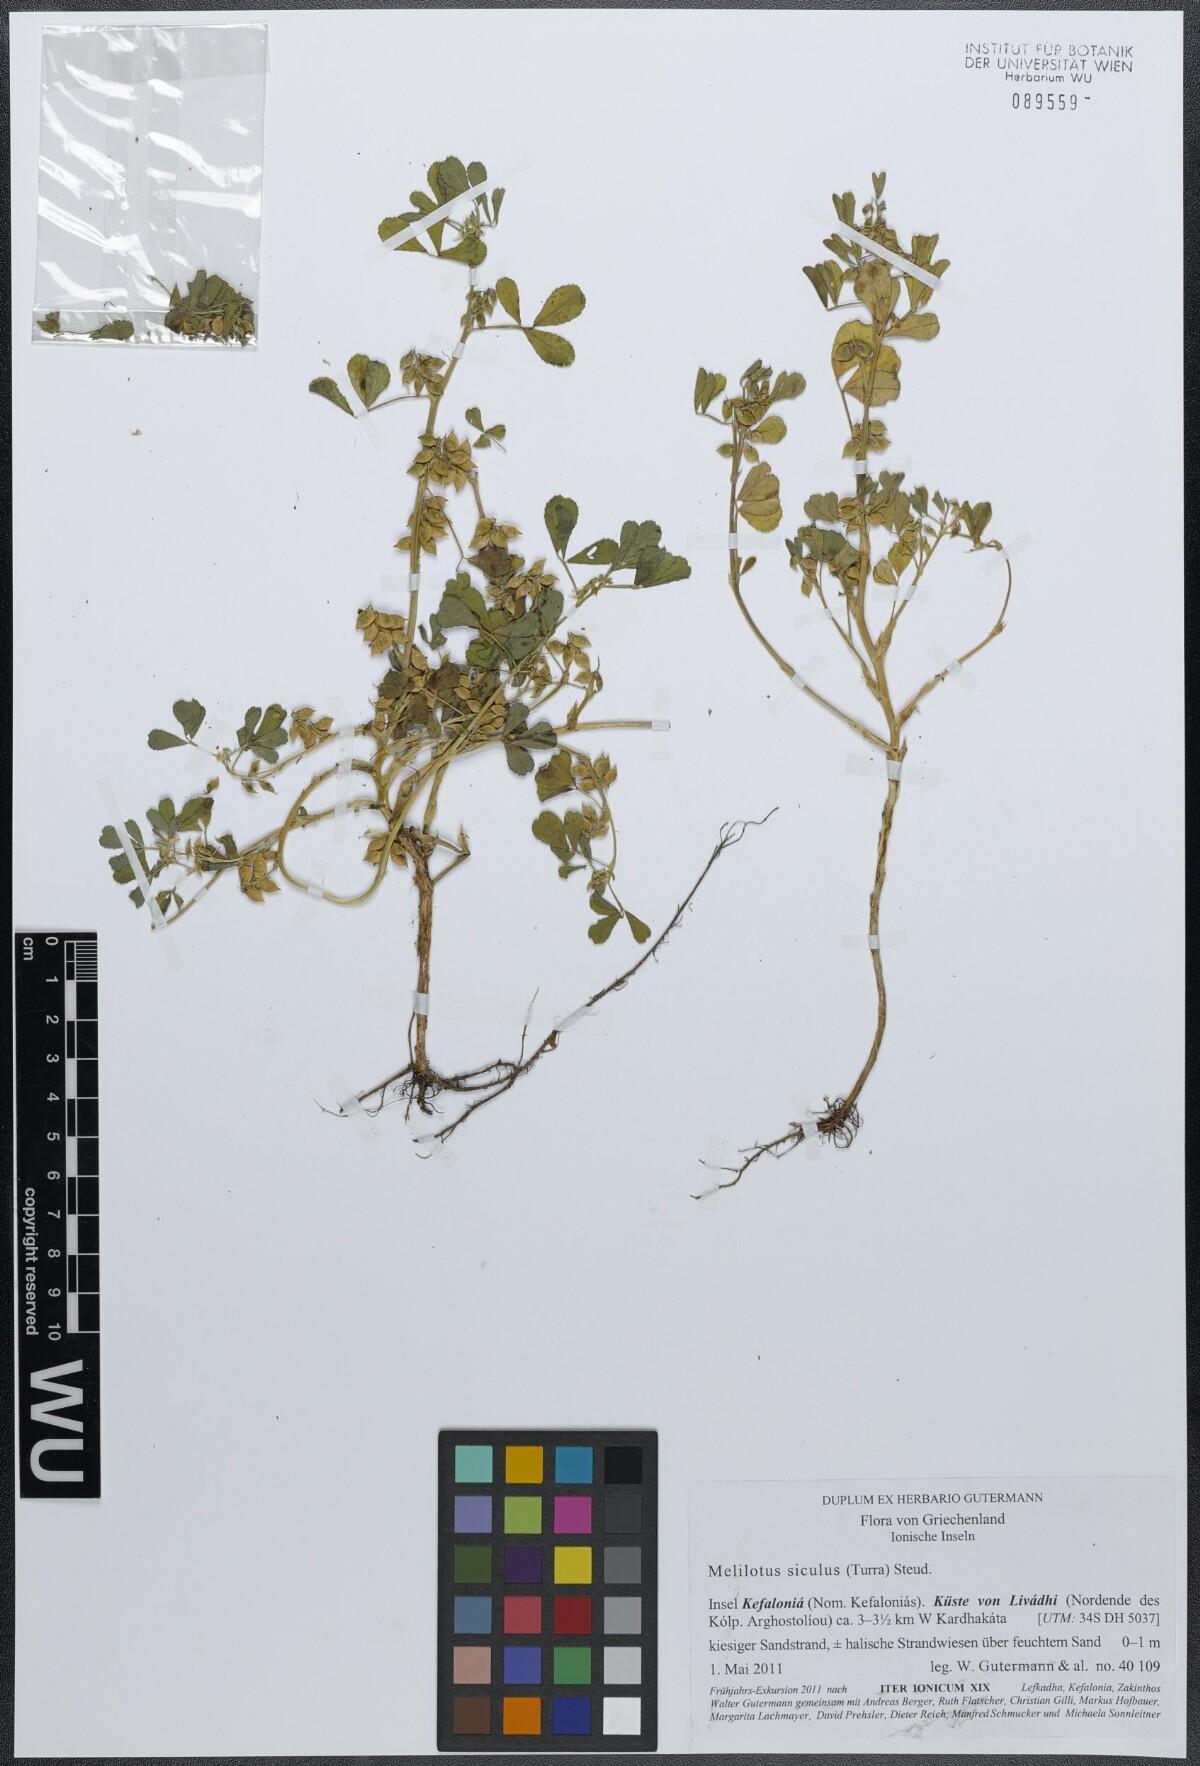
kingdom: Plantae
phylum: Tracheophyta
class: Magnoliopsida
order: Fabales
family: Fabaceae
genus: Melilotus
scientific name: Melilotus siculus
